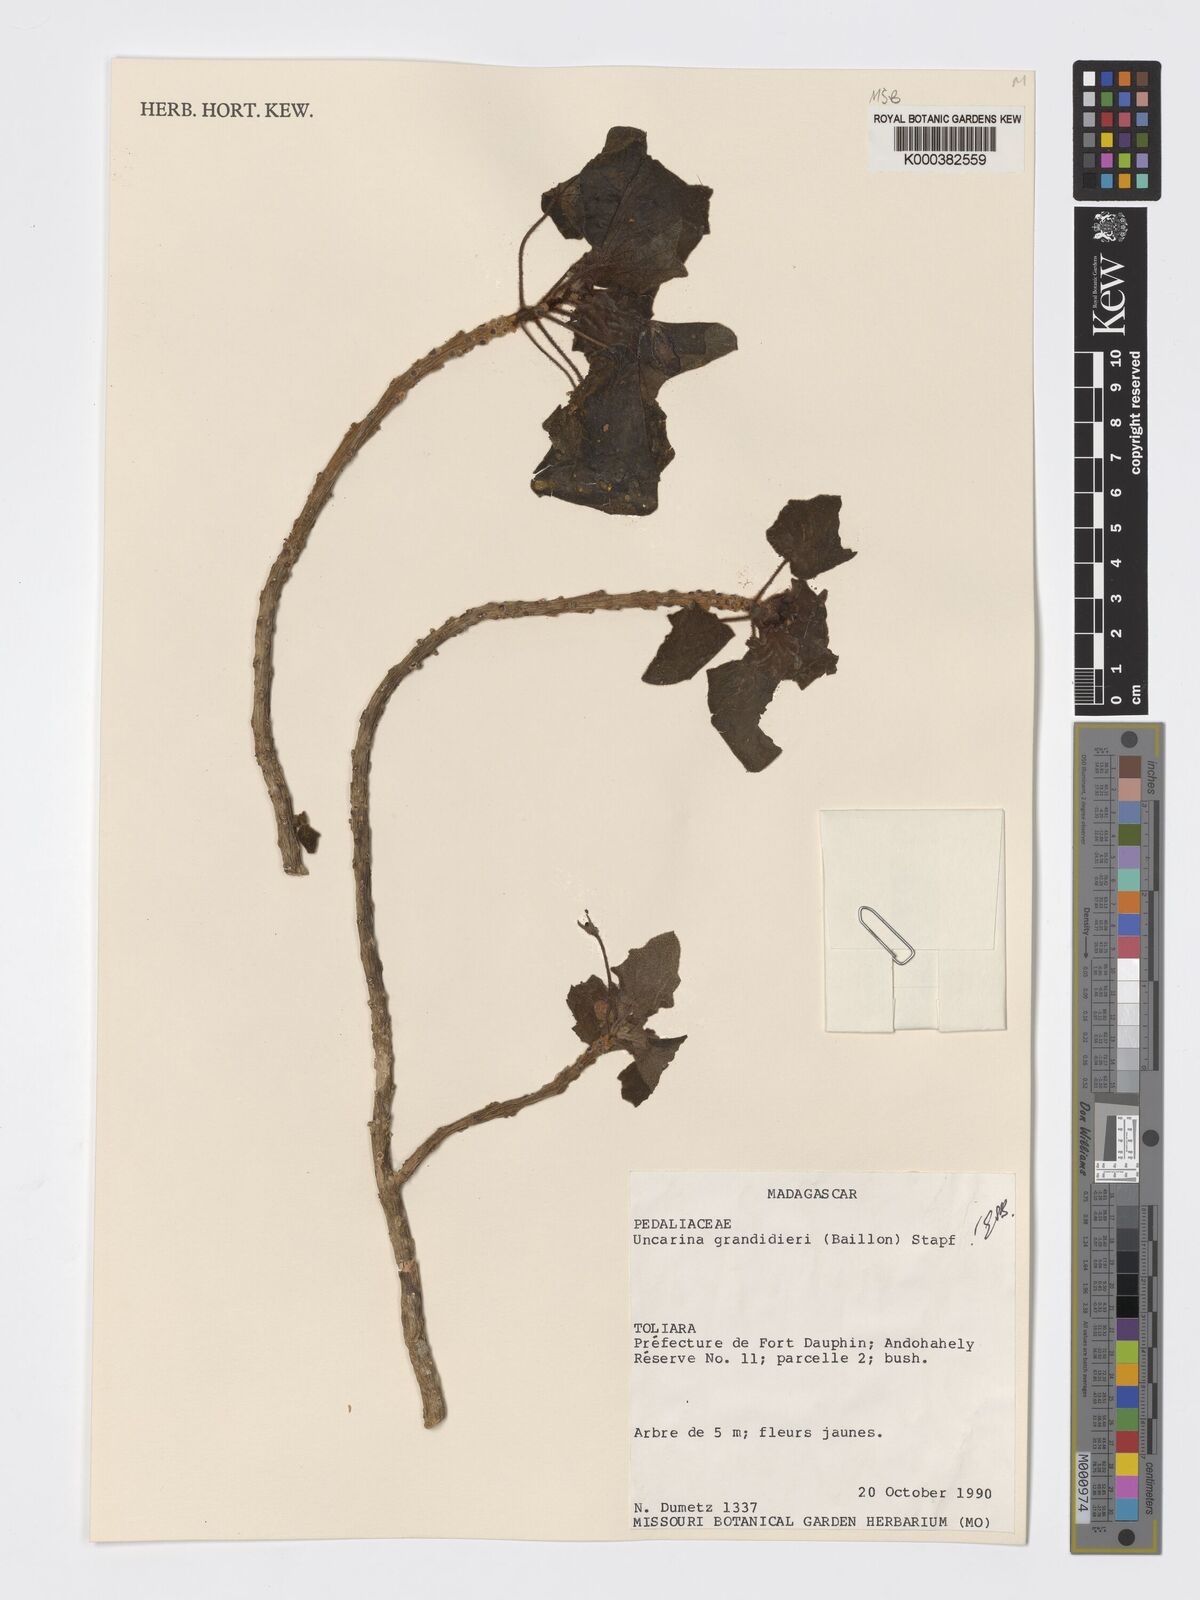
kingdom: Plantae
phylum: Tracheophyta
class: Magnoliopsida
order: Lamiales
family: Pedaliaceae
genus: Uncarina
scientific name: Uncarina
